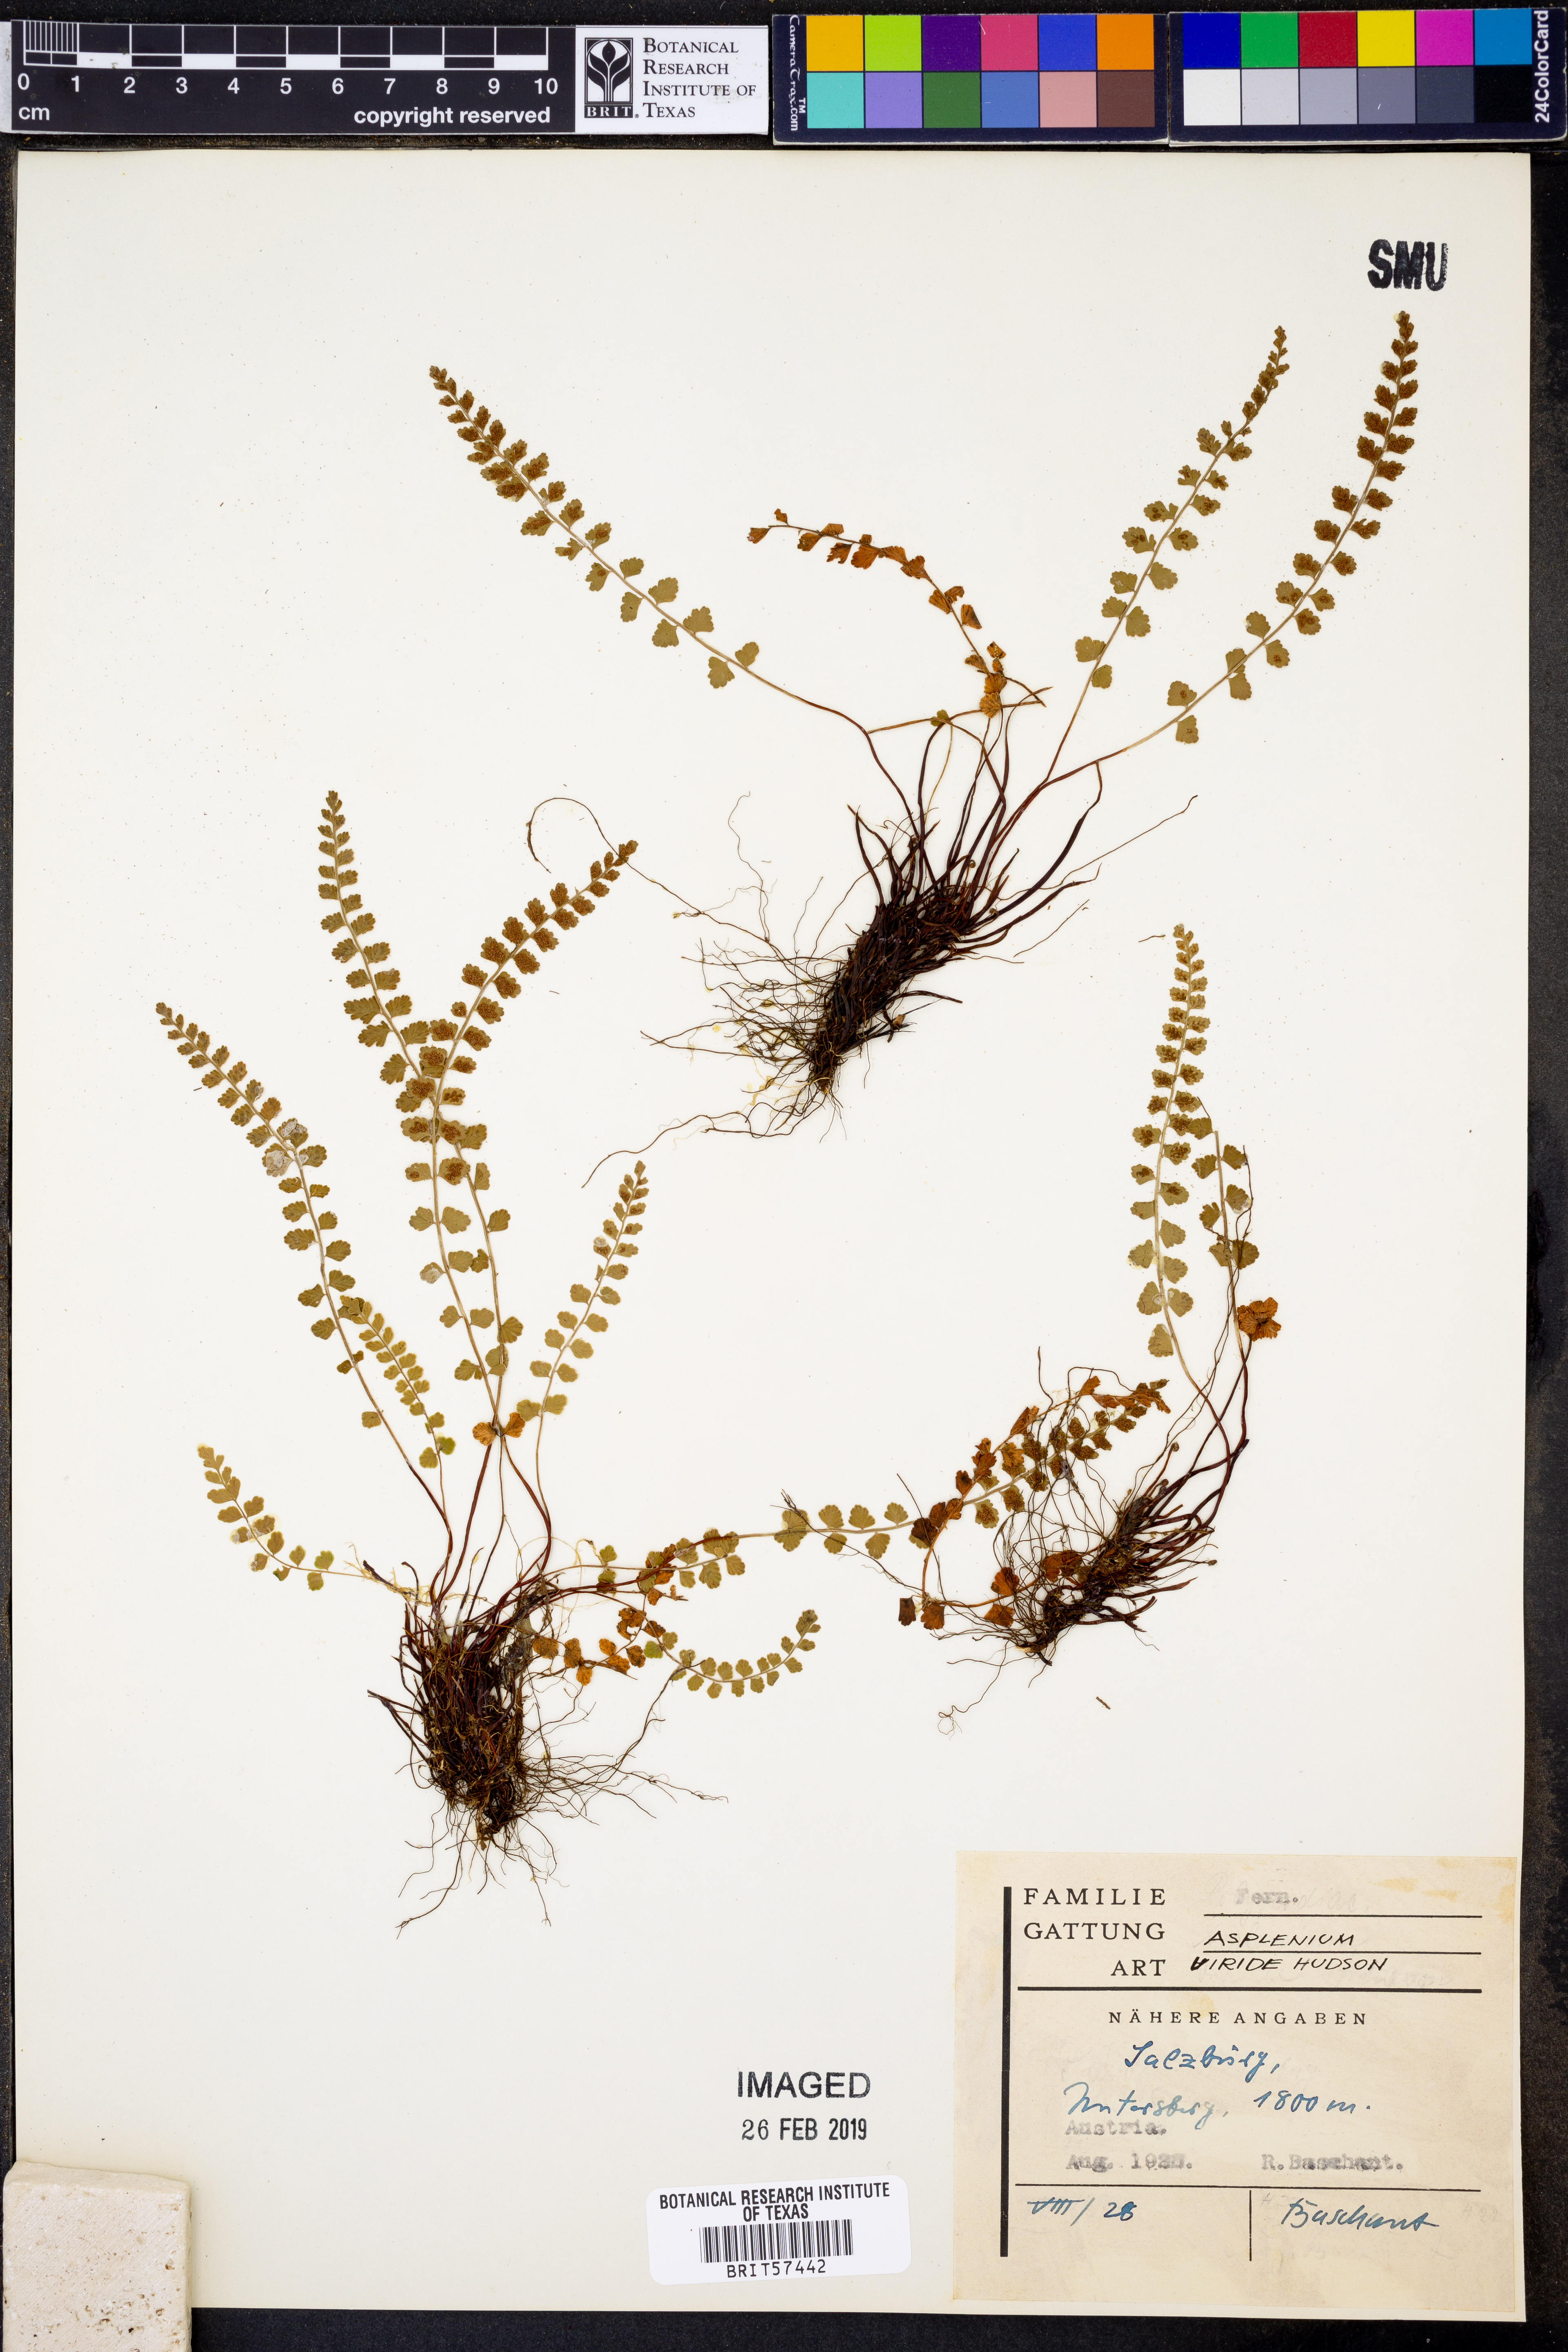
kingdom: Plantae
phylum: Tracheophyta
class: Polypodiopsida
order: Polypodiales
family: Aspleniaceae
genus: Asplenium
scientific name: Asplenium viride
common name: Green spleenwort
